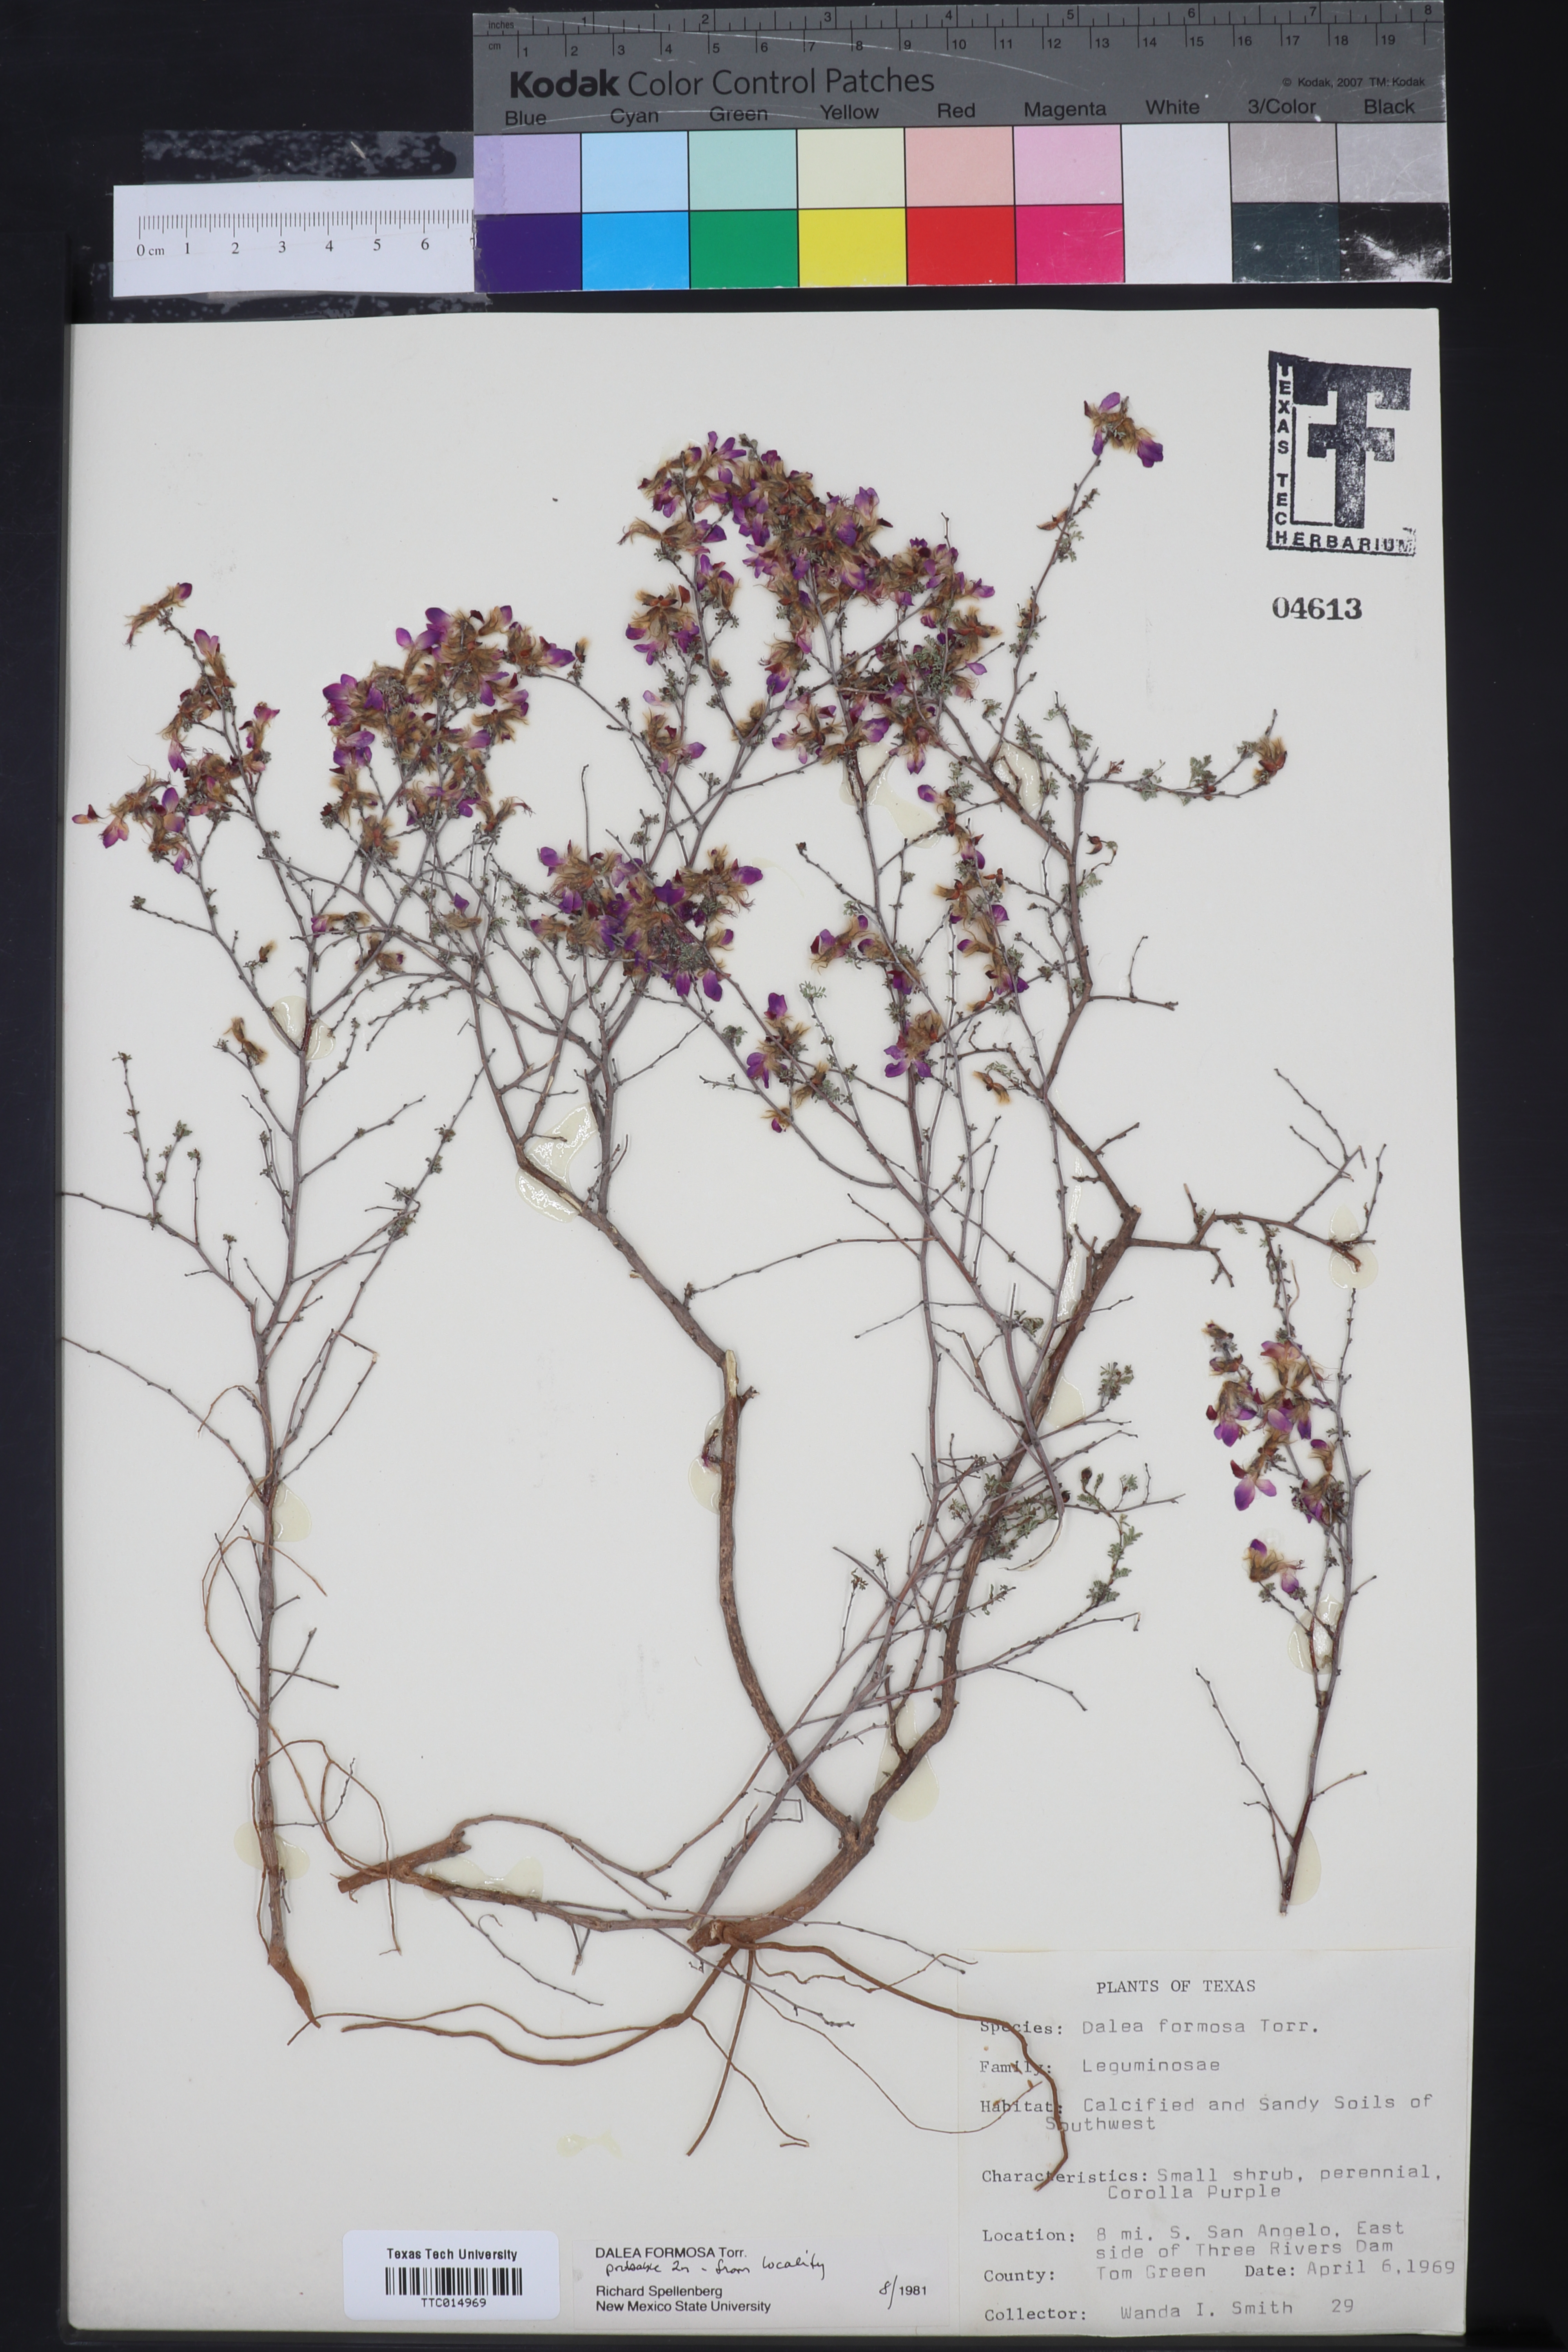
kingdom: Plantae
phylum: Tracheophyta
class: Magnoliopsida
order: Fabales
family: Fabaceae
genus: Dalea
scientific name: Dalea formosa
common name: Feather-plume dalea
